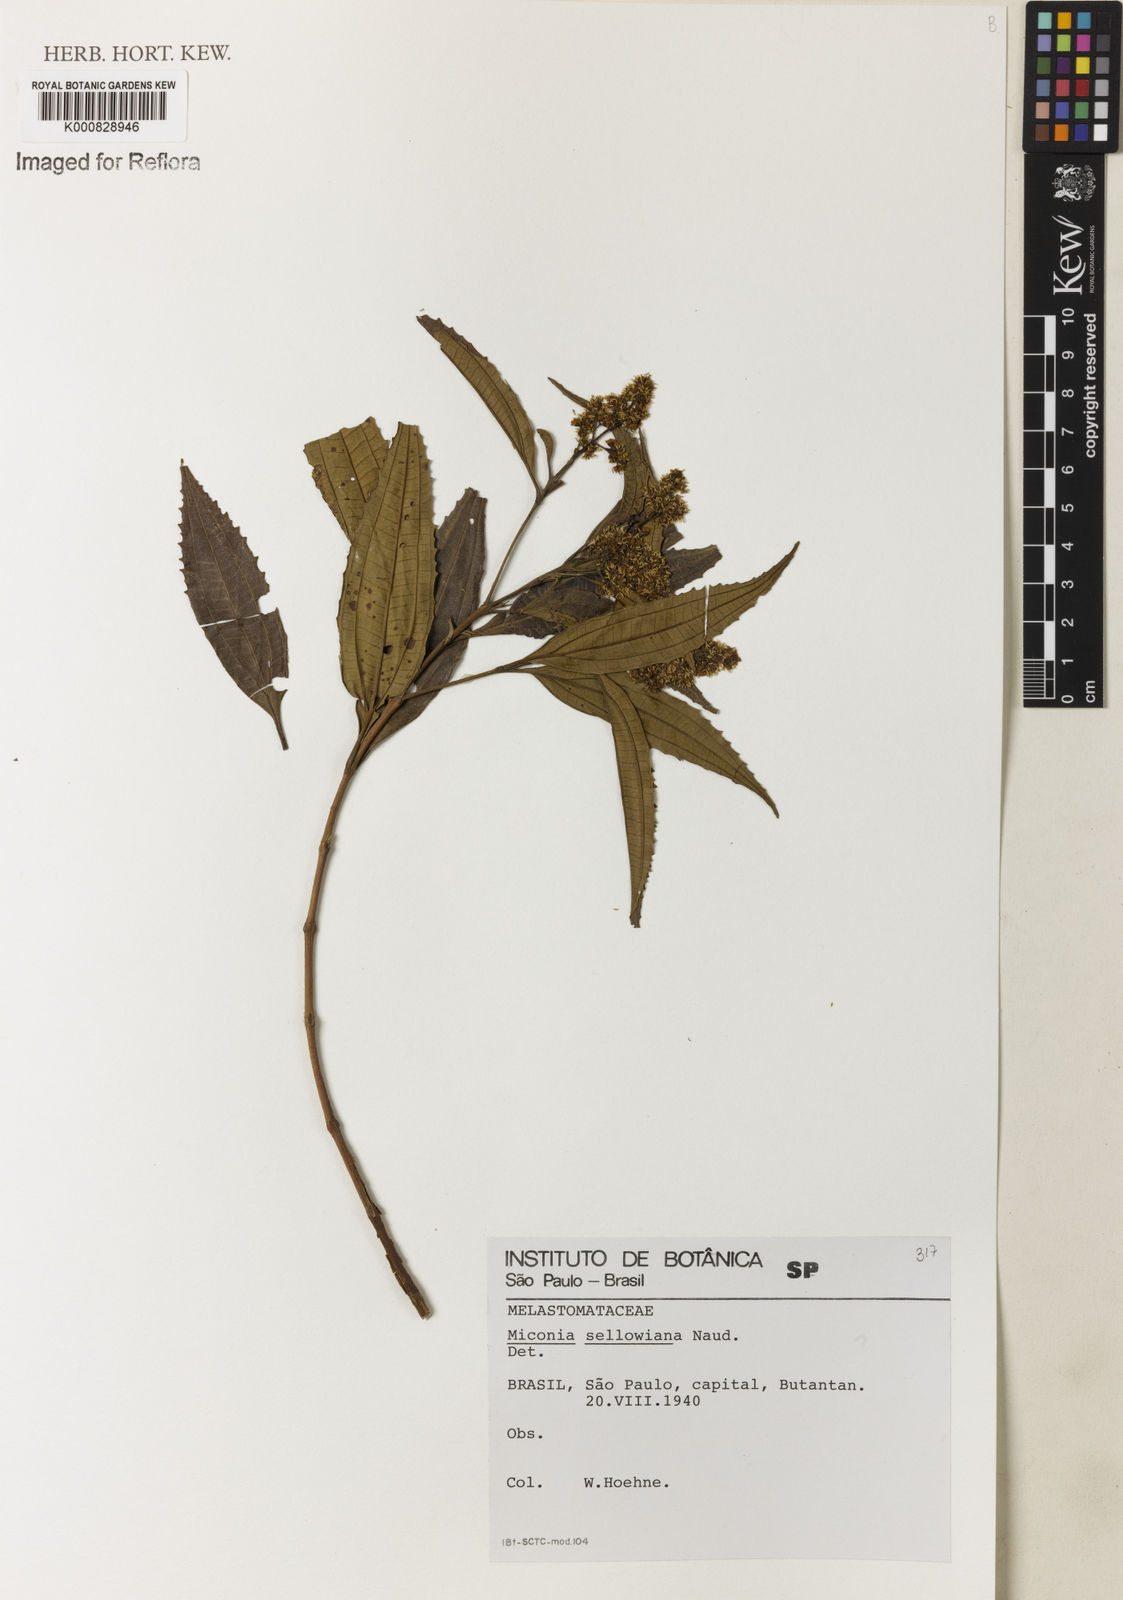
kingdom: Plantae
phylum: Tracheophyta
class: Magnoliopsida
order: Myrtales
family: Melastomataceae
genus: Miconia
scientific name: Miconia sellowiana
